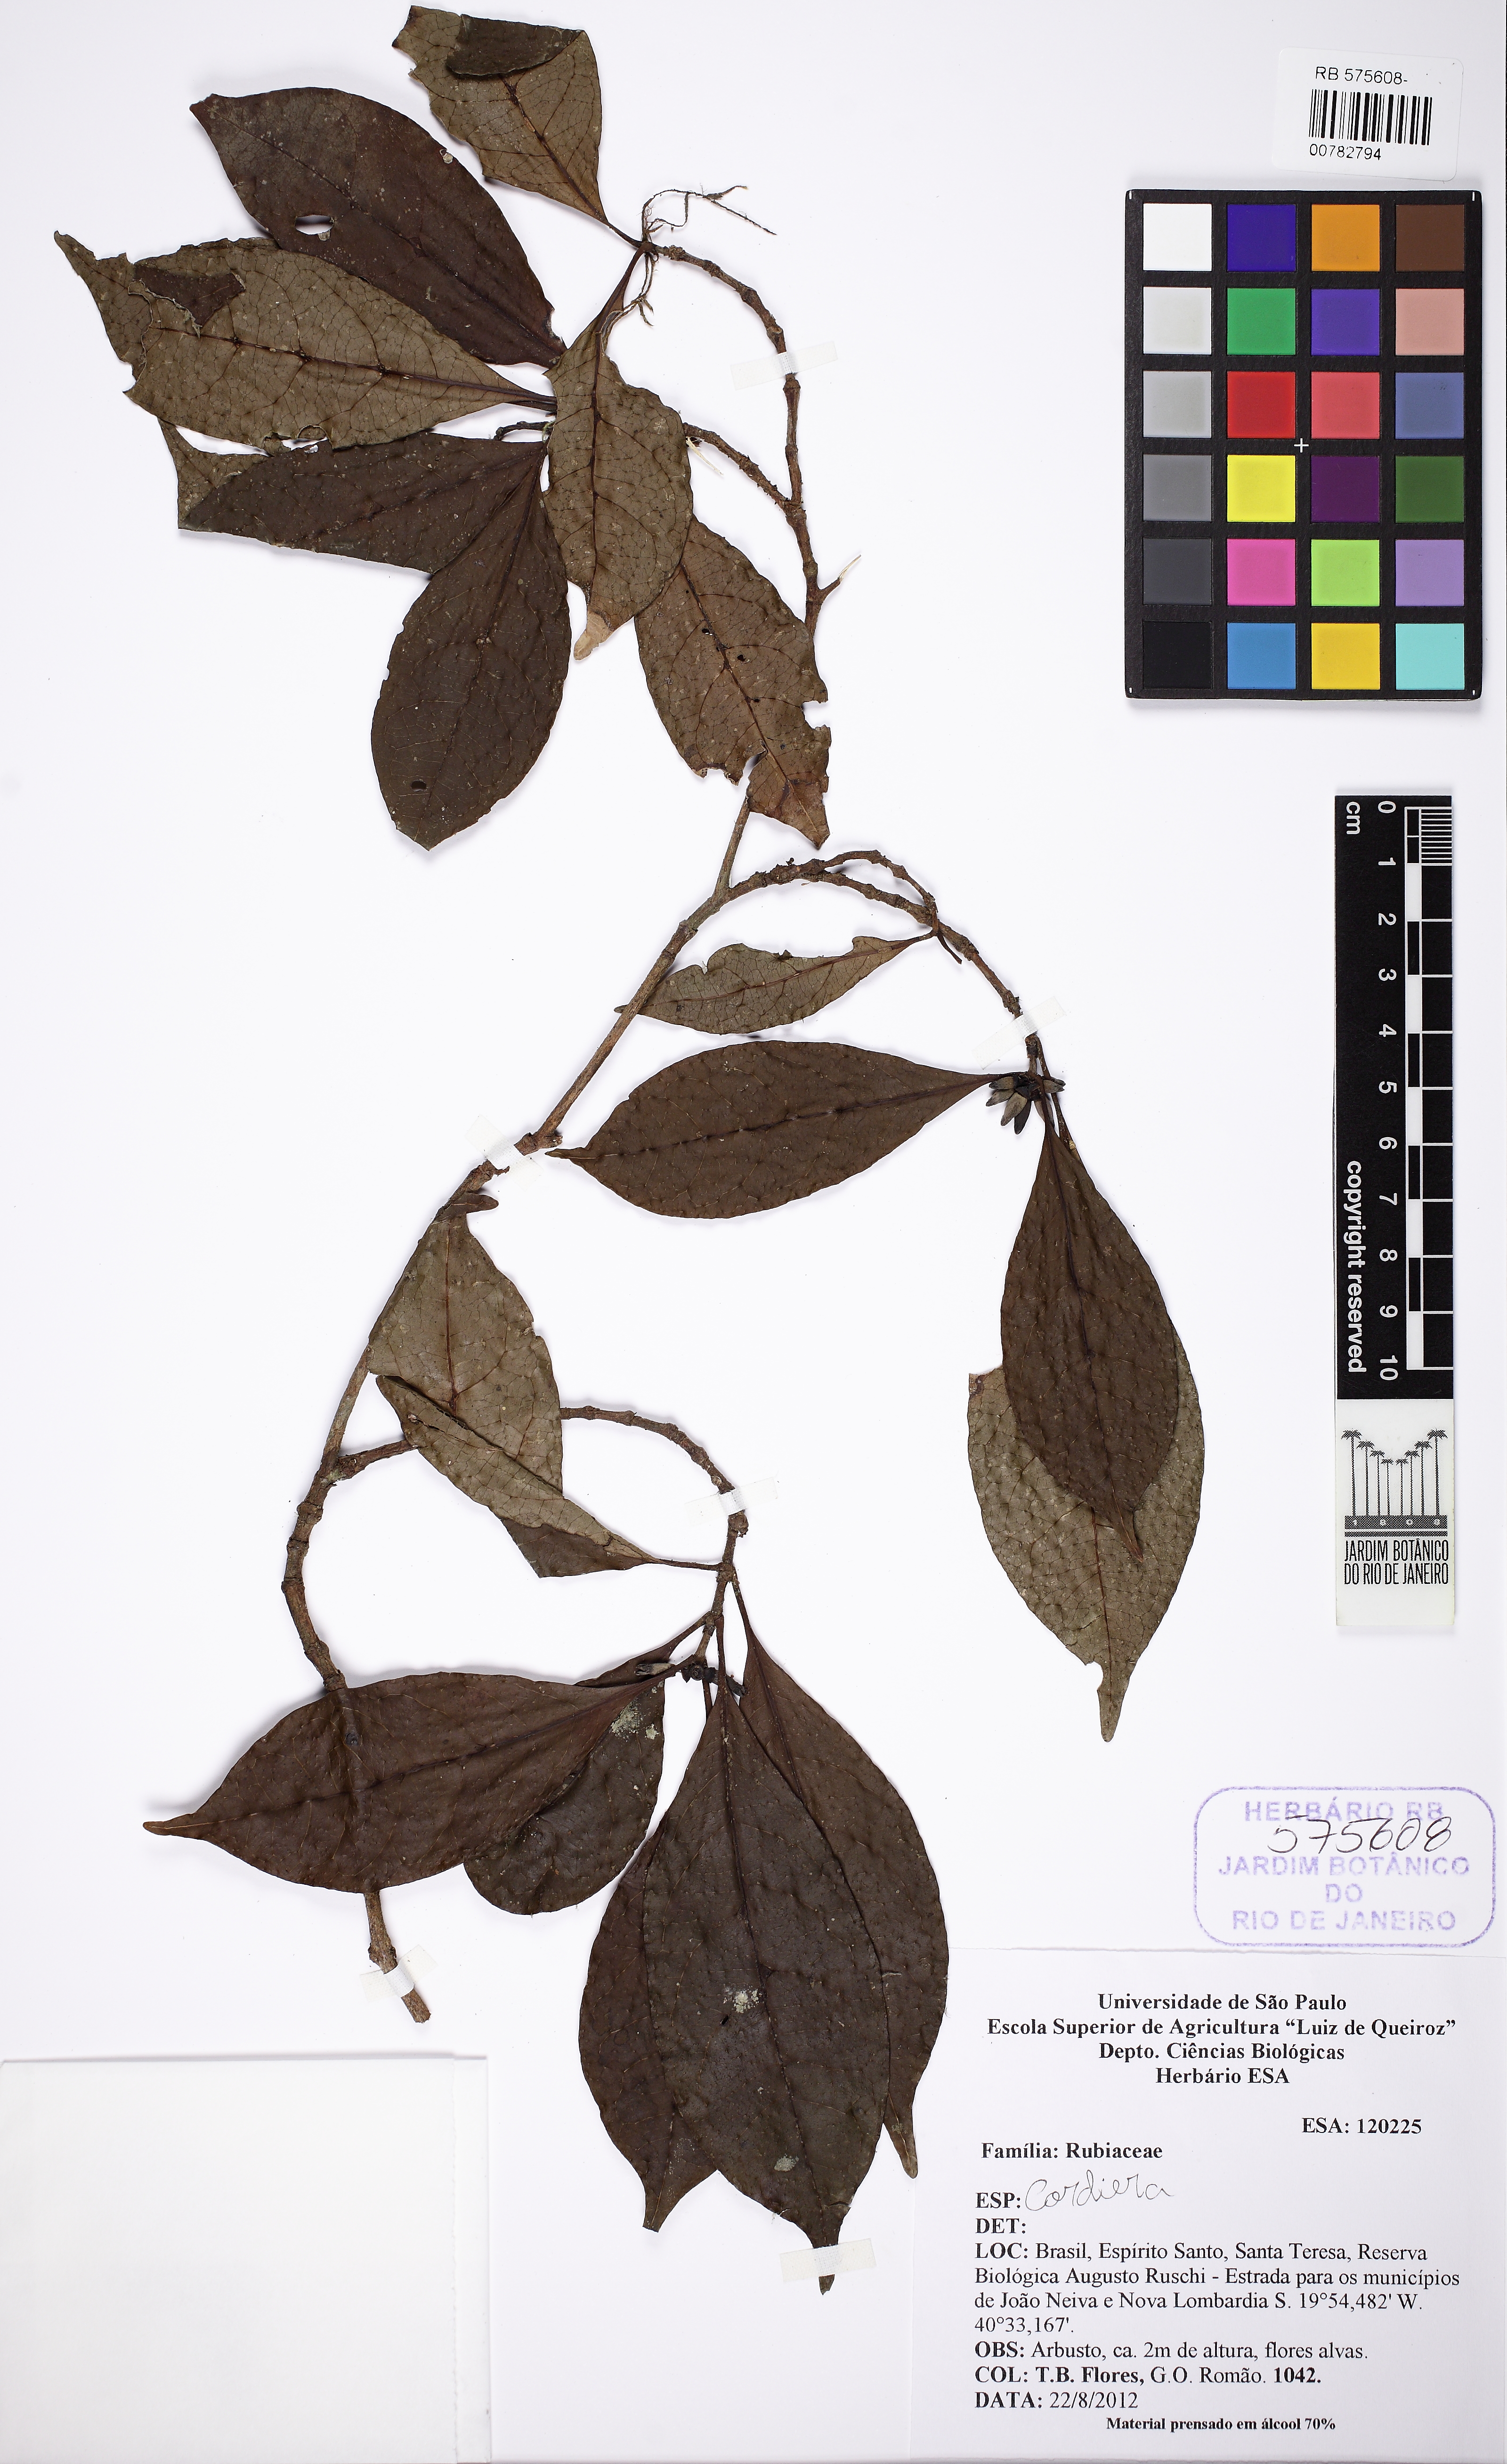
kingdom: Plantae
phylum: Tracheophyta
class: Magnoliopsida
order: Gentianales
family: Rubiaceae
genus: Cordiera
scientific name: Cordiera
